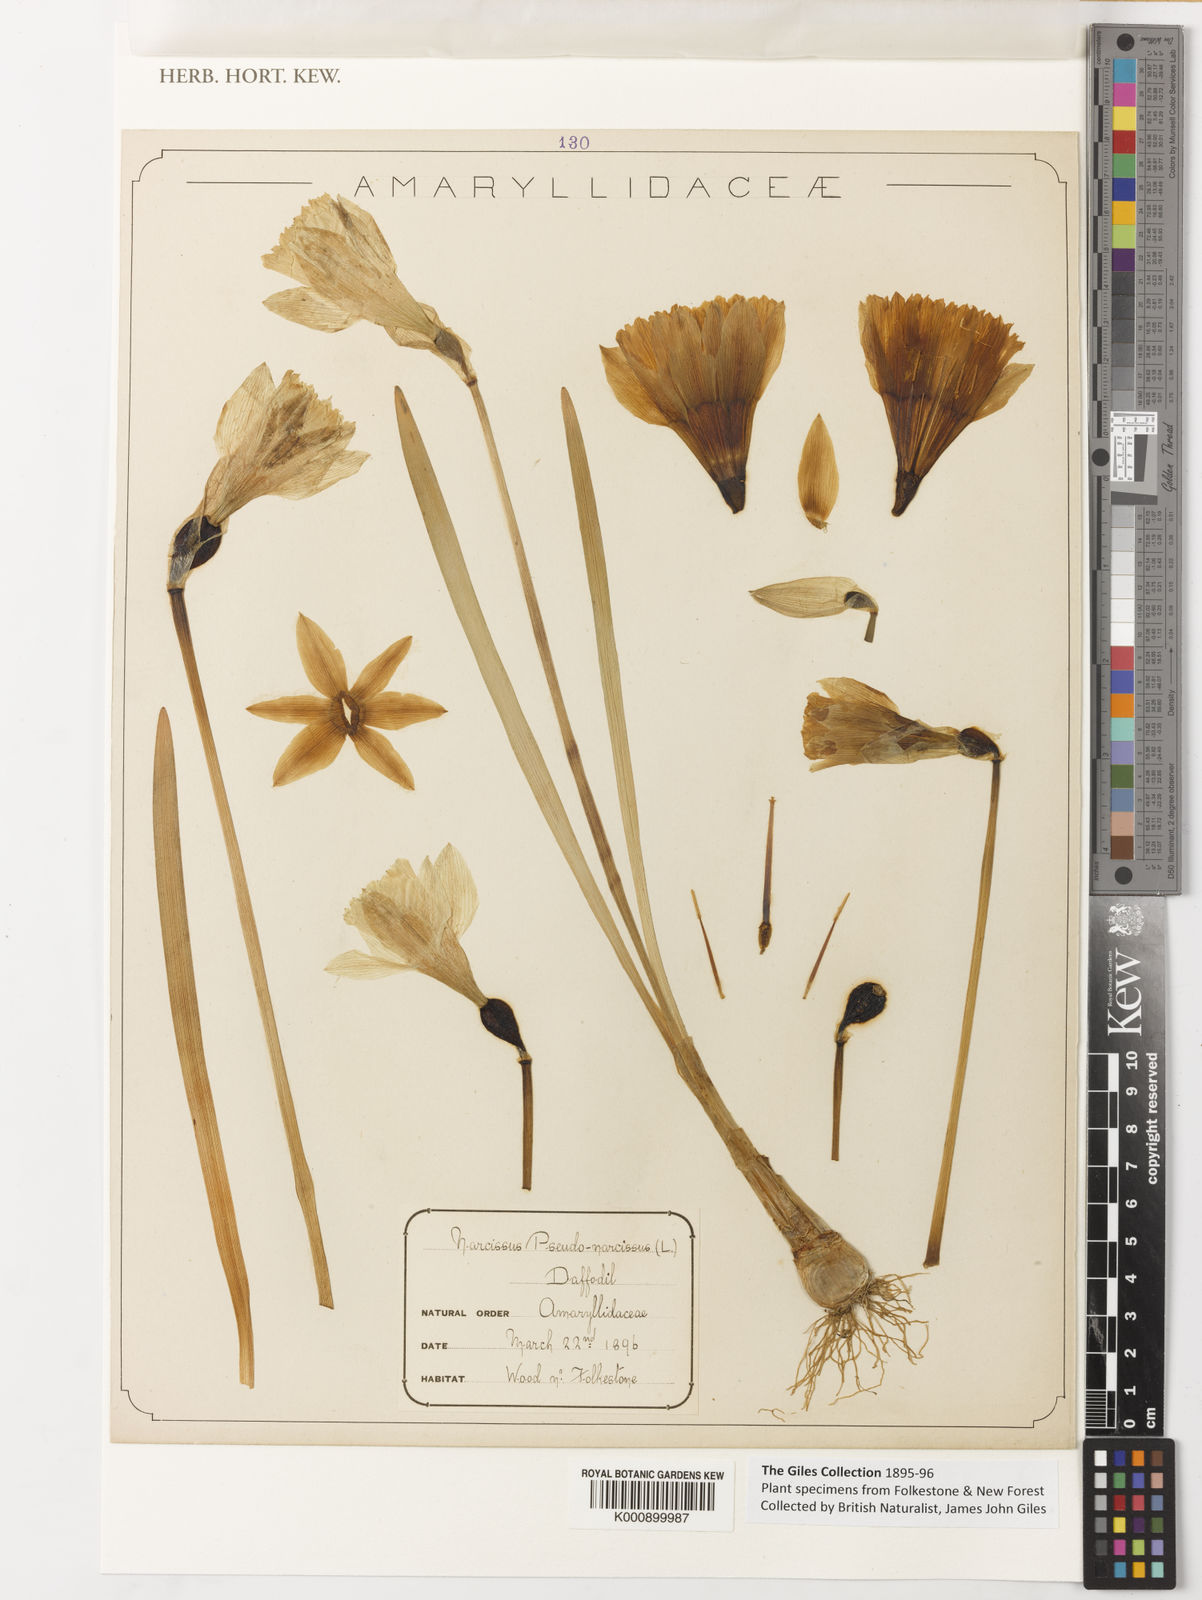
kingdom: Plantae
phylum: Tracheophyta
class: Liliopsida
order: Asparagales
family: Amaryllidaceae
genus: Narcissus
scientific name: Narcissus pseudonarcissus
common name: Daffodil
